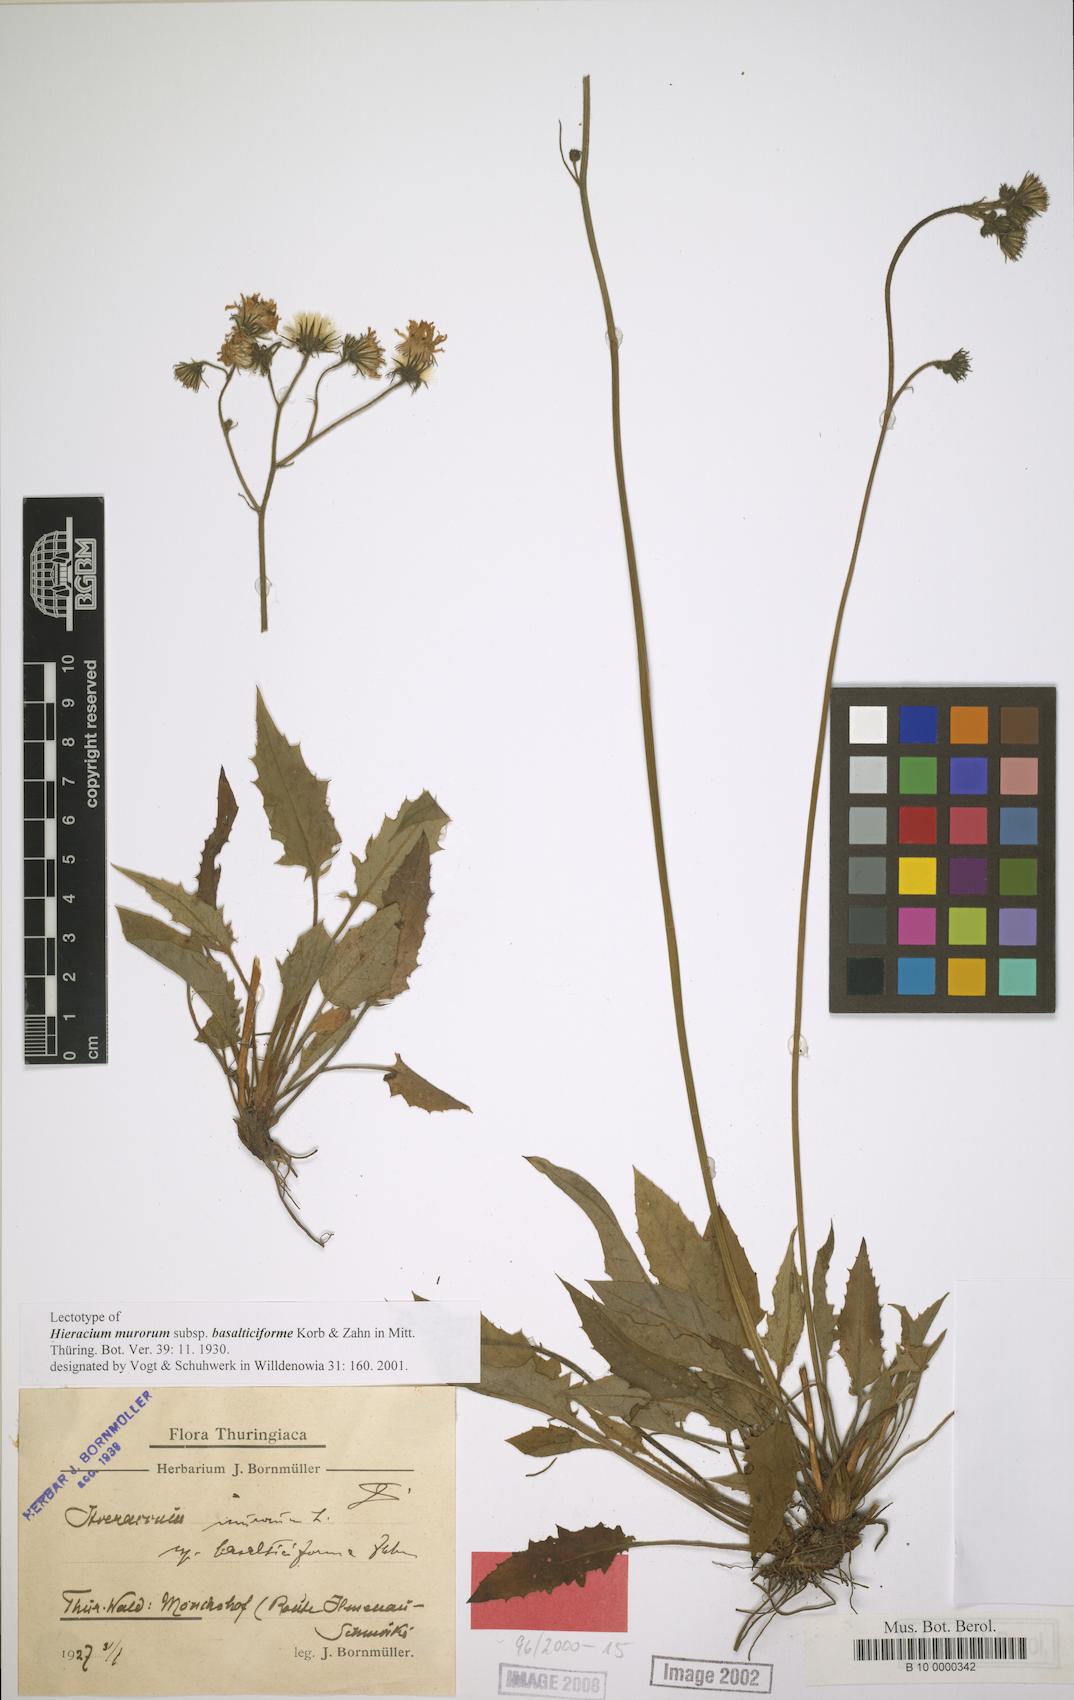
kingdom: Plantae
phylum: Tracheophyta
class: Magnoliopsida
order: Asterales
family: Asteraceae
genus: Hieracium
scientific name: Hieracium murorum
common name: Wall hawkweed
